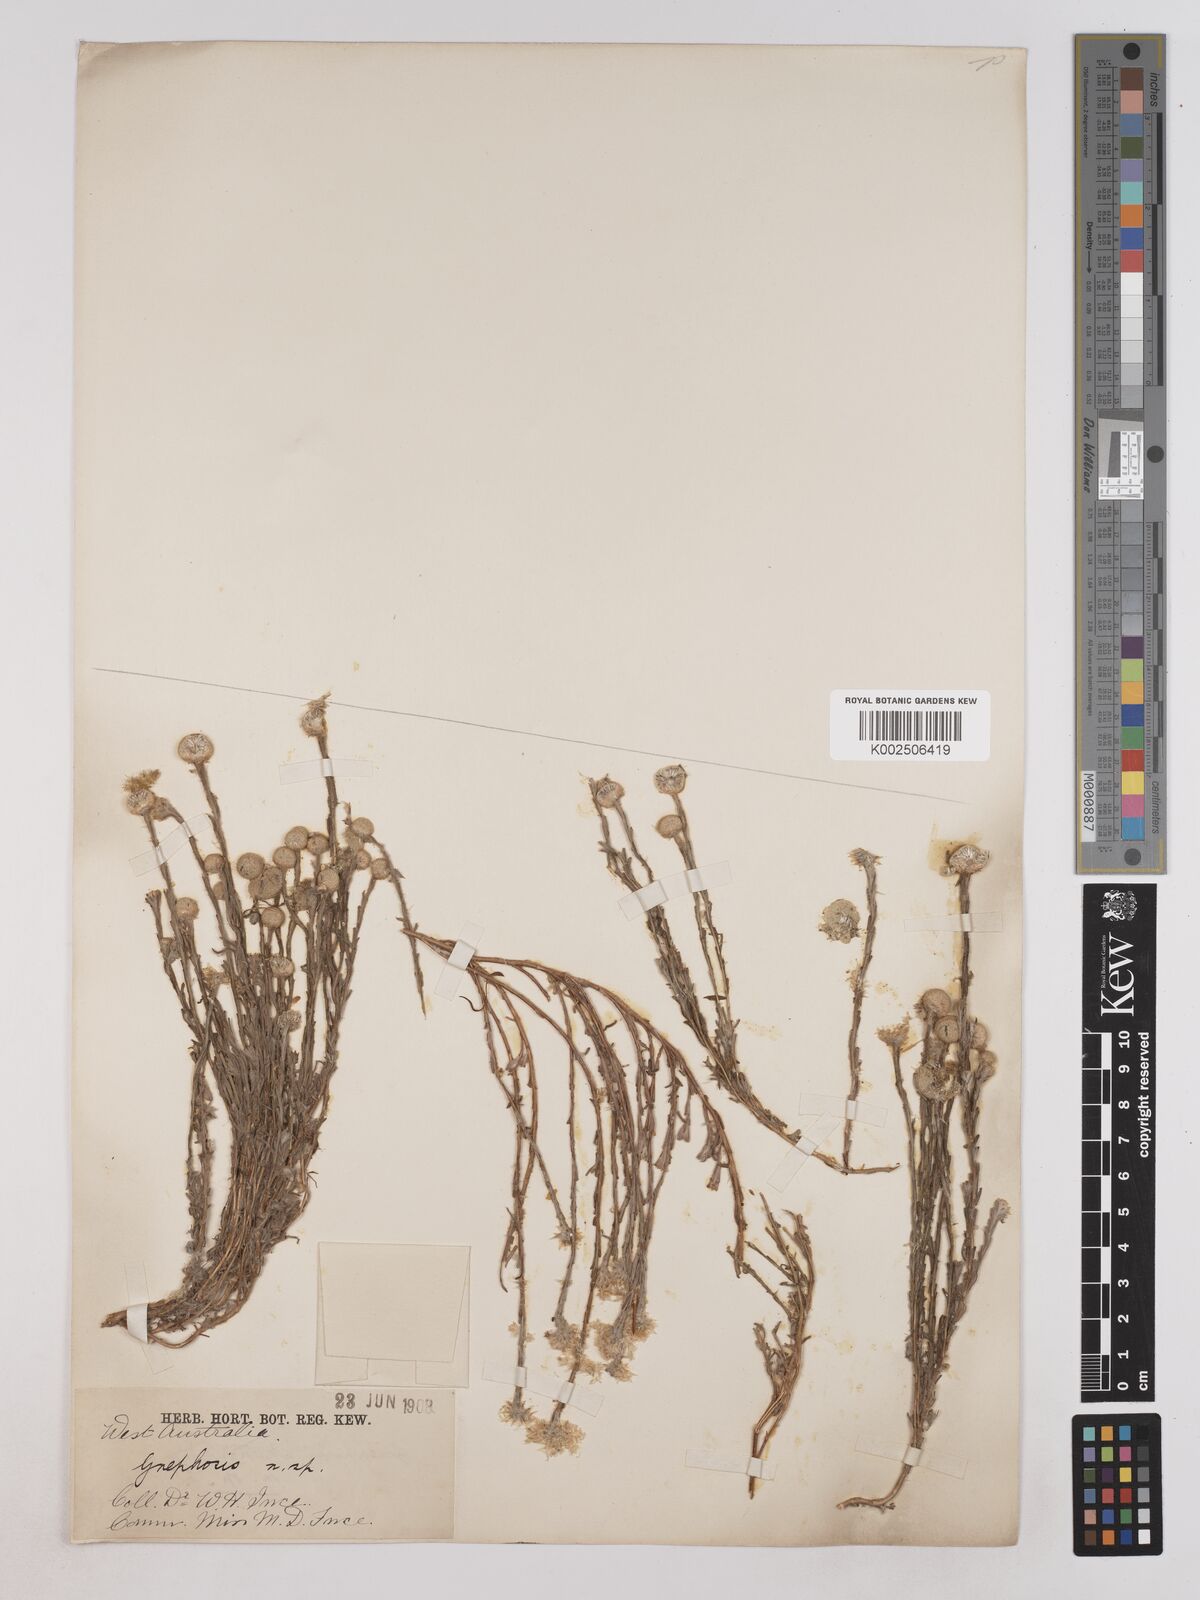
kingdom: Plantae
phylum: Tracheophyta
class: Magnoliopsida
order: Asterales
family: Asteraceae
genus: Trichanthodium
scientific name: Trichanthodium skirrophorum
